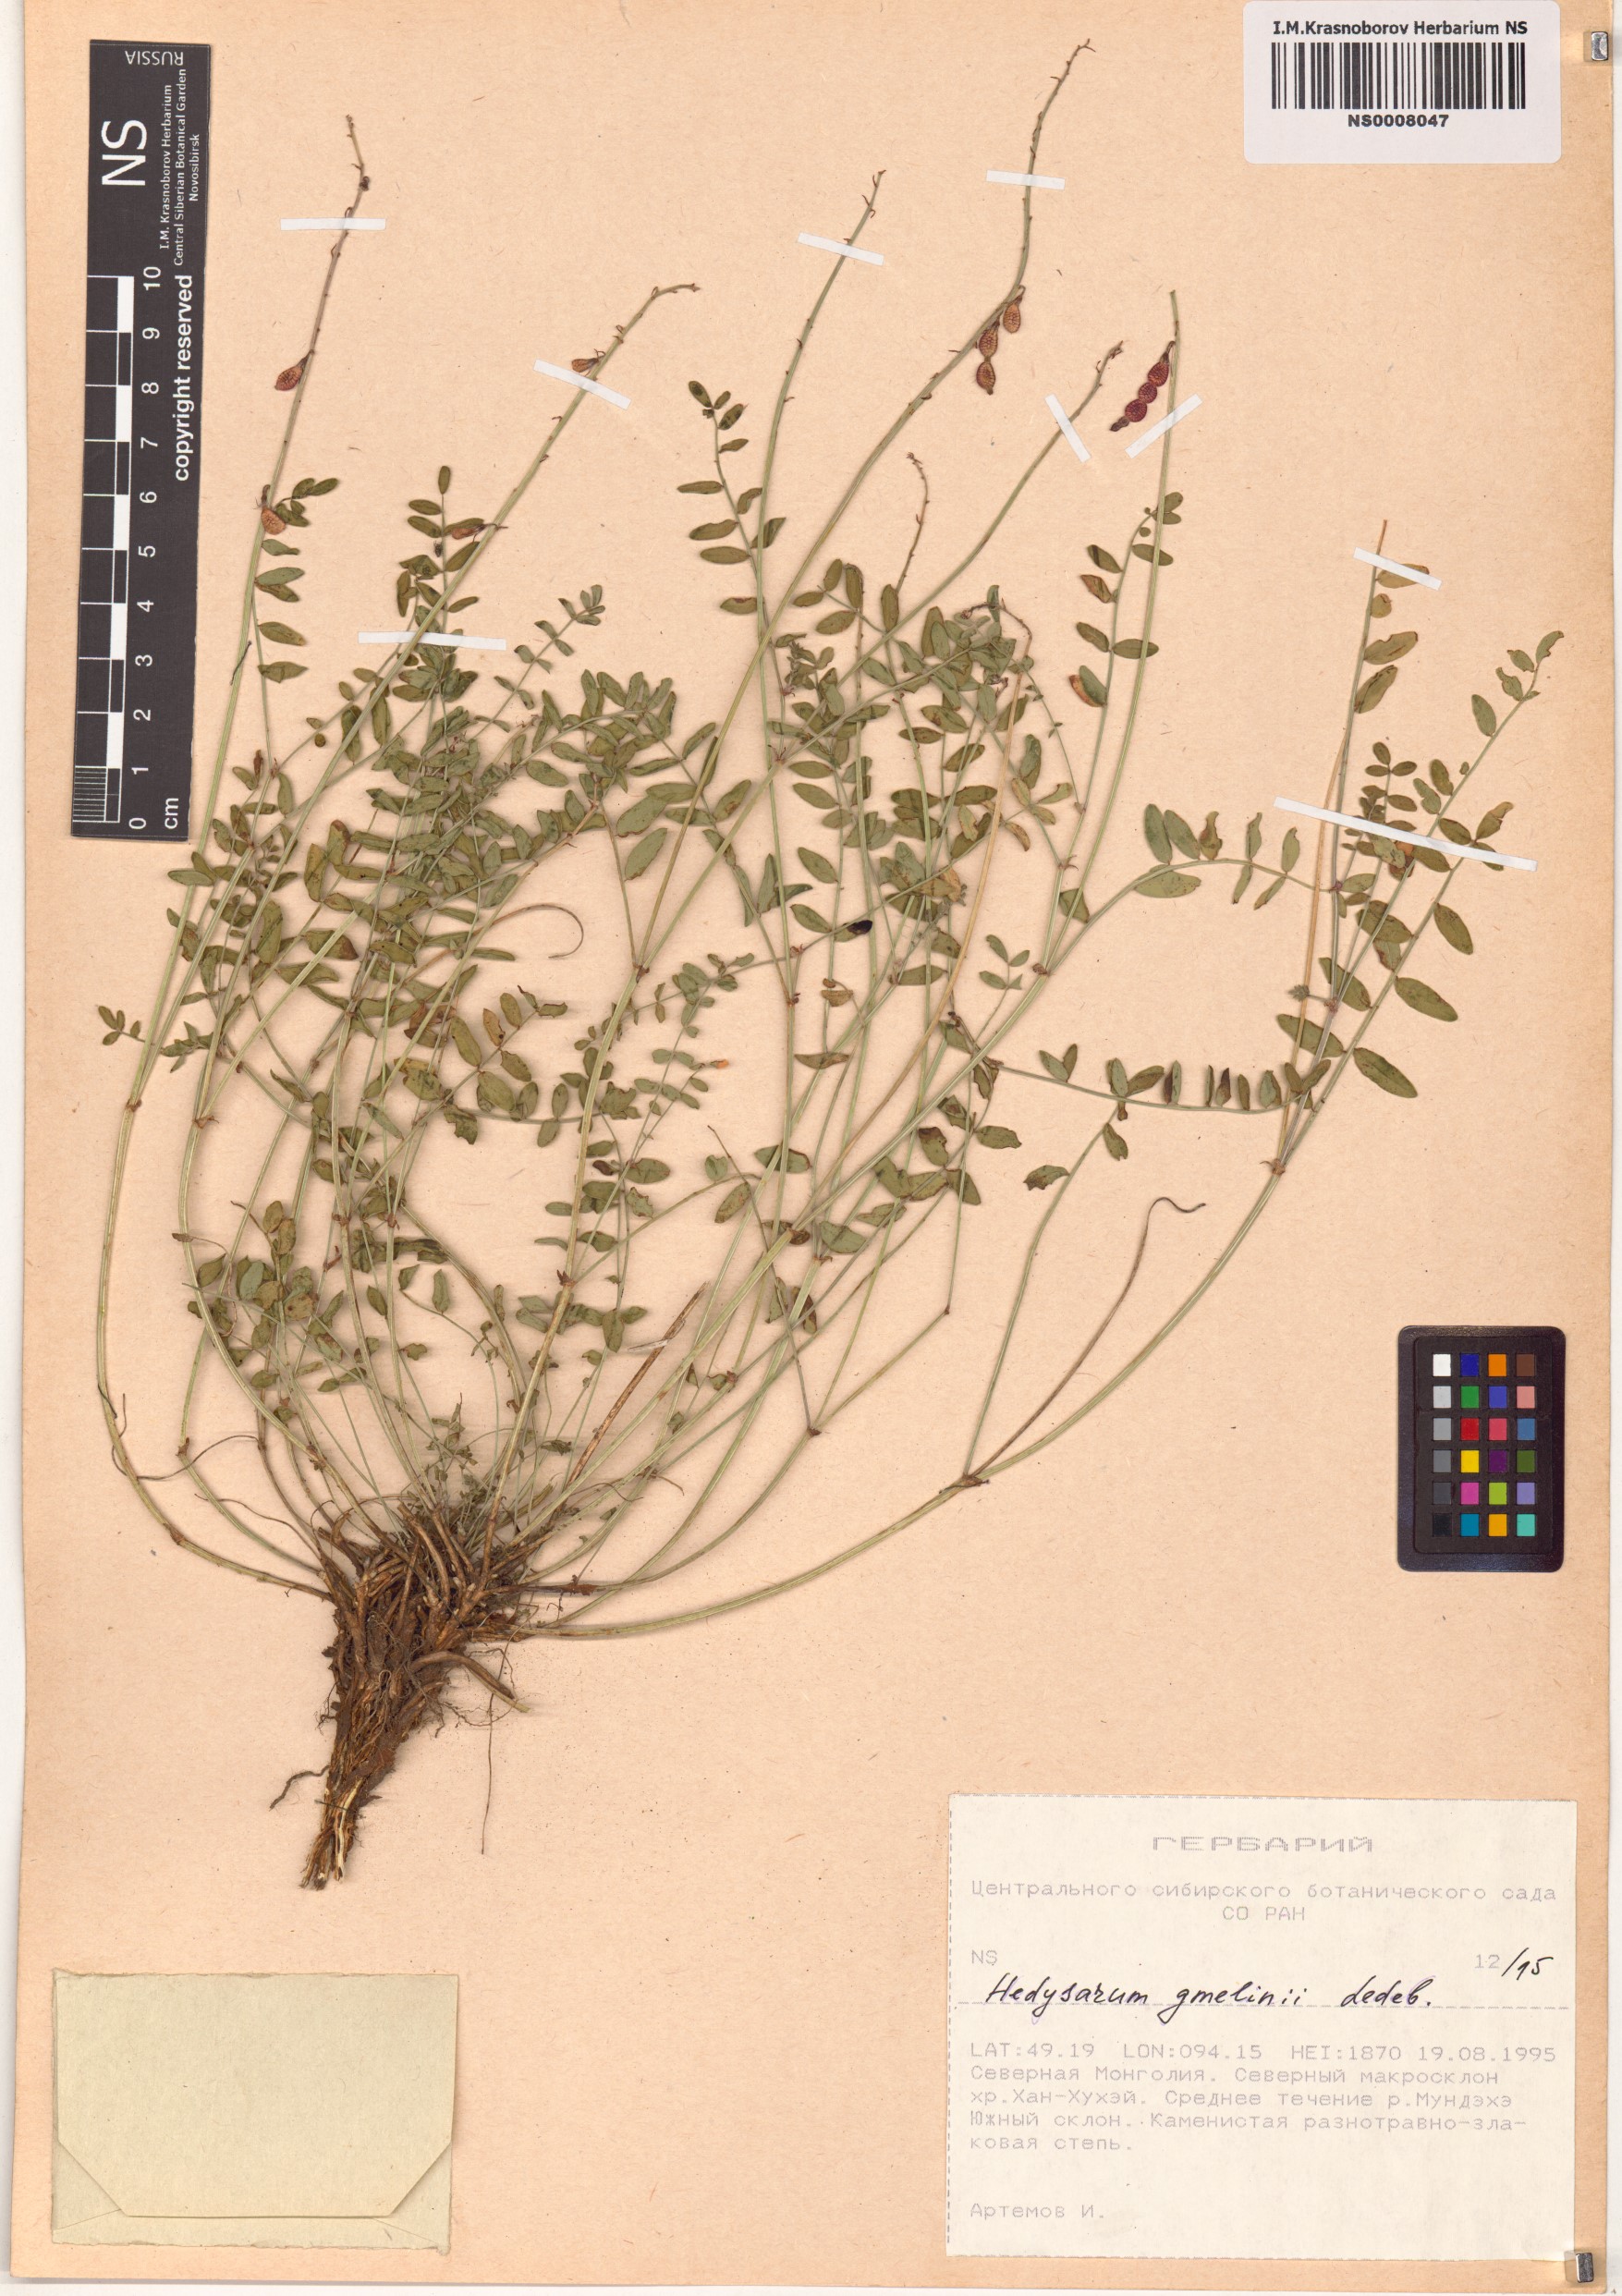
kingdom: Plantae
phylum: Tracheophyta
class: Magnoliopsida
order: Fabales
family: Fabaceae
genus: Hedysarum
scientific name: Hedysarum gmelinii
